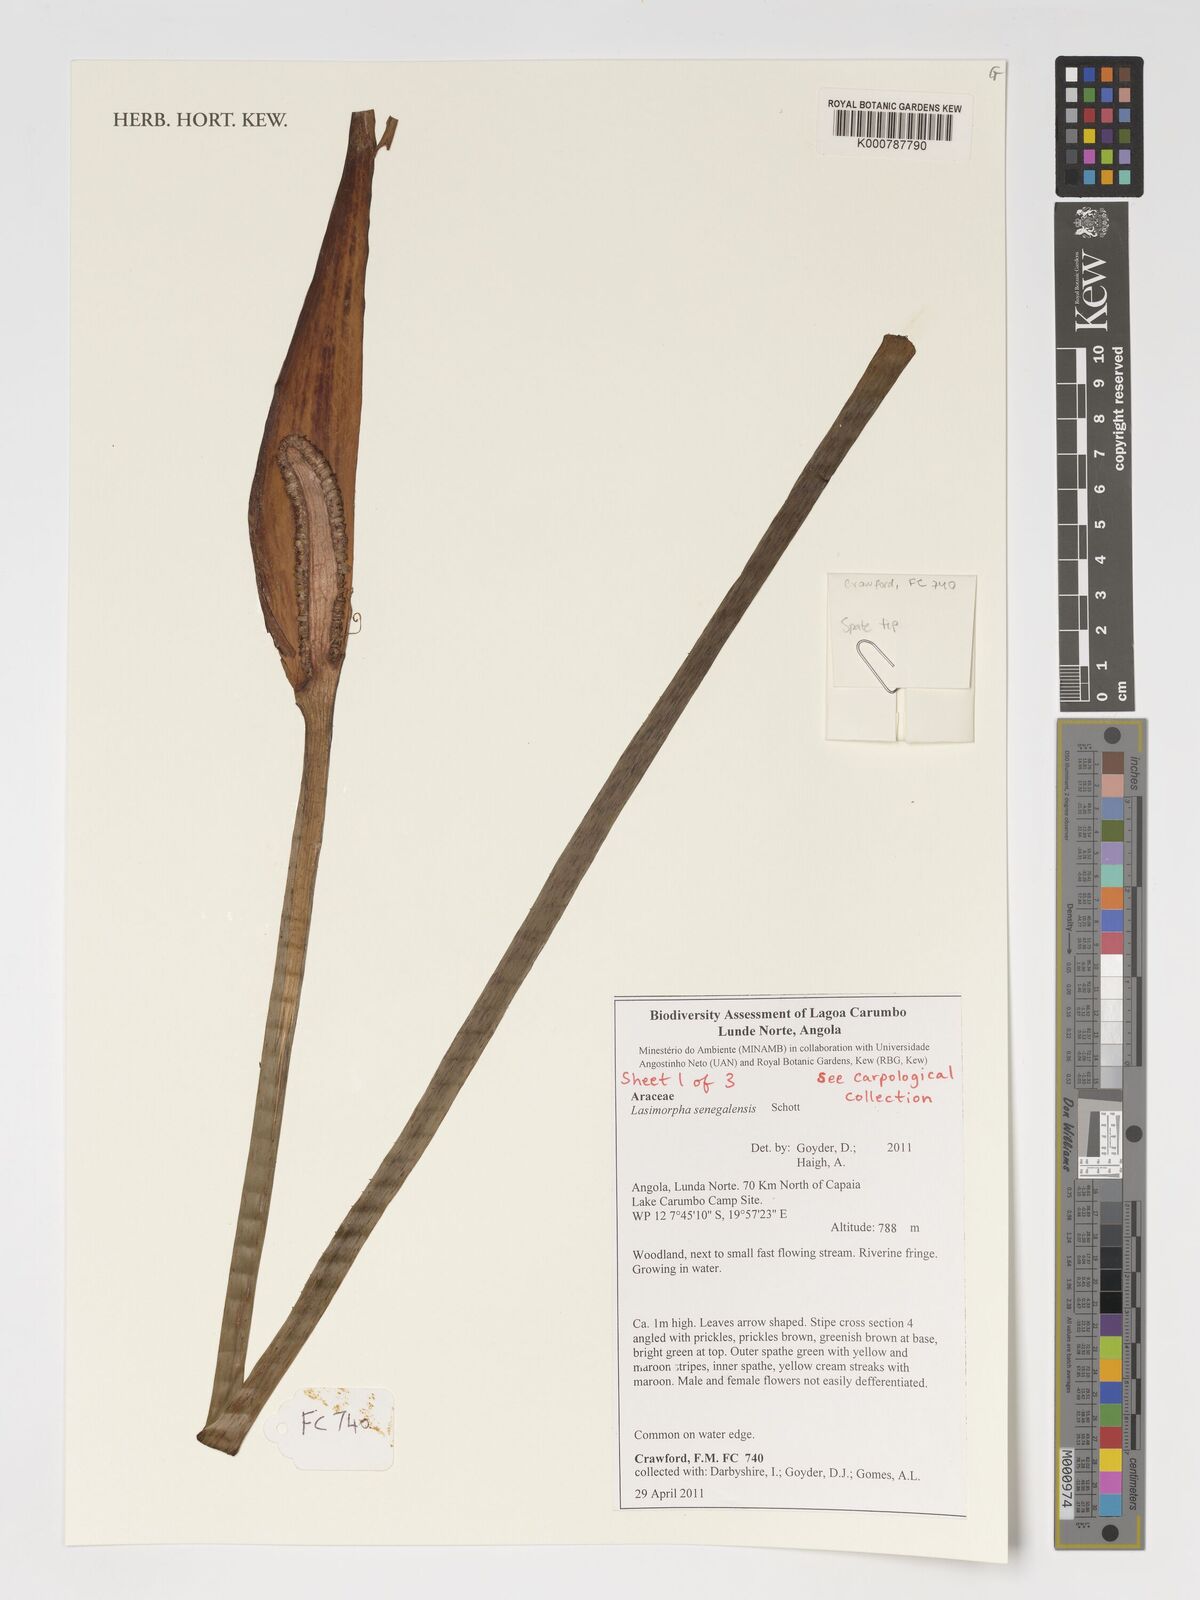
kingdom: Plantae
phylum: Tracheophyta
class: Liliopsida
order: Alismatales
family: Araceae
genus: Lasimorpha
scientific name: Lasimorpha senegalensis
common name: Swamp arum
